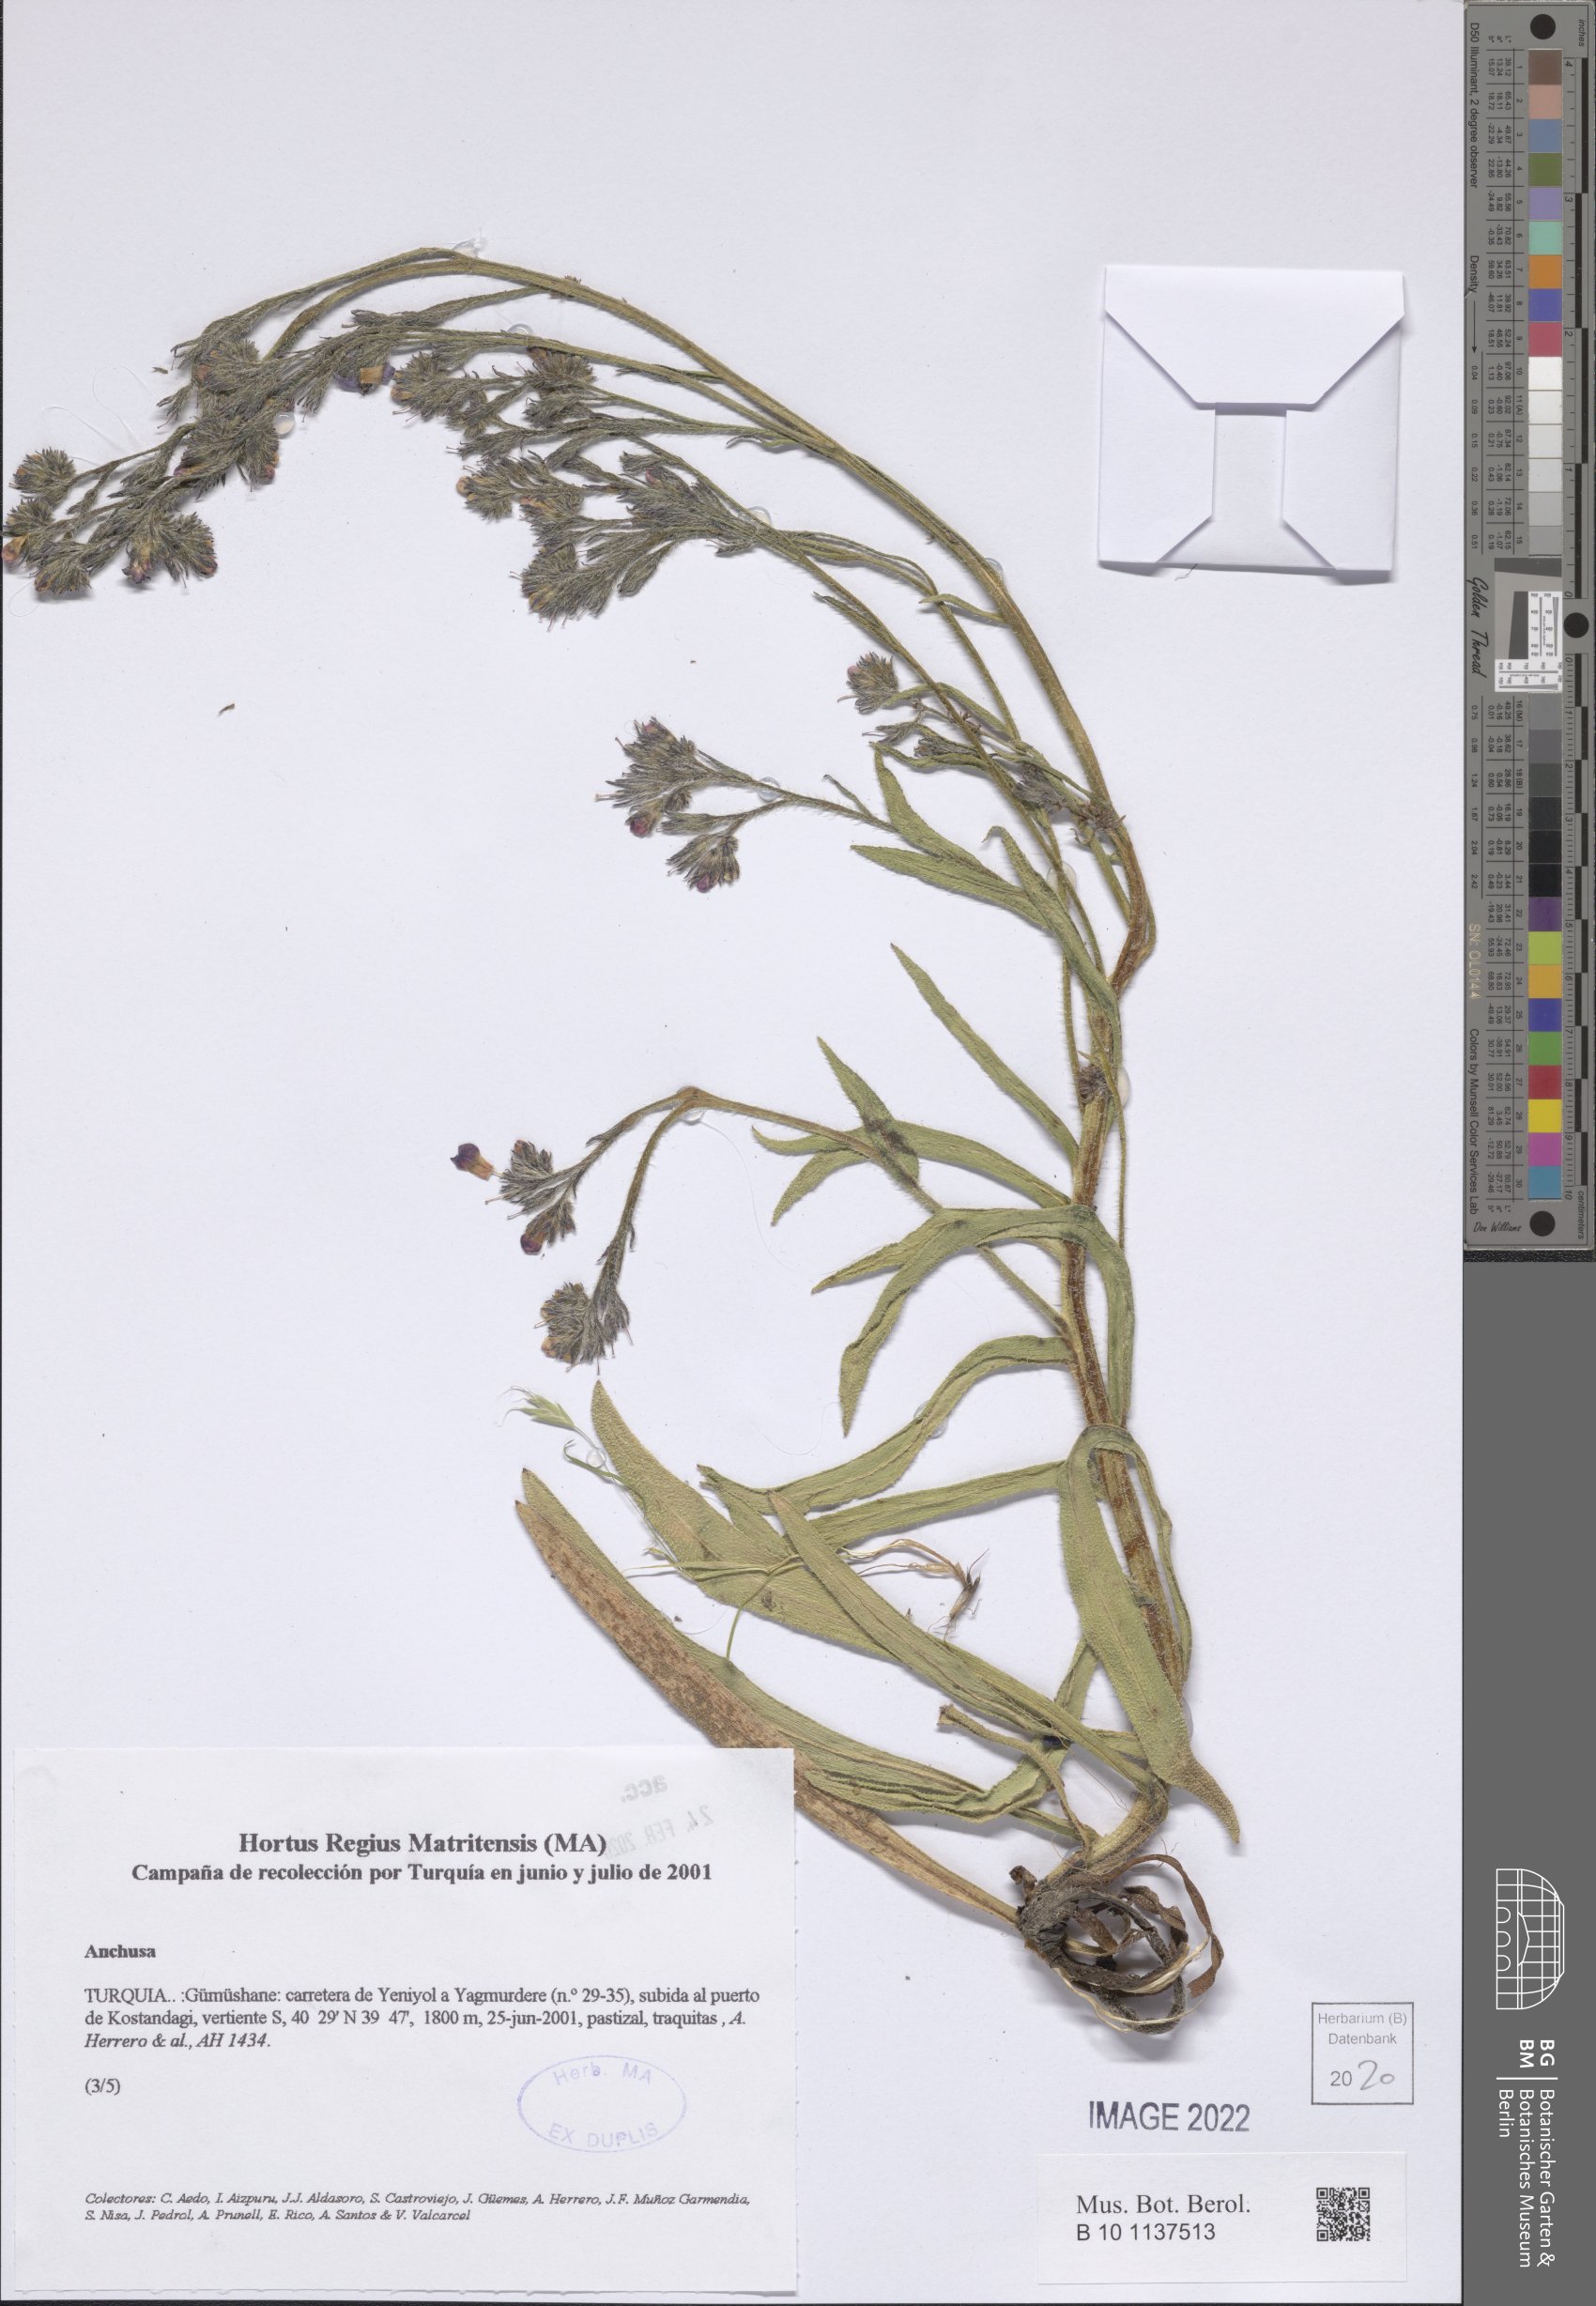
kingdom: Plantae
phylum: Tracheophyta
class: Magnoliopsida
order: Boraginales
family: Boraginaceae
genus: Anchusa
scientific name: Anchusa
